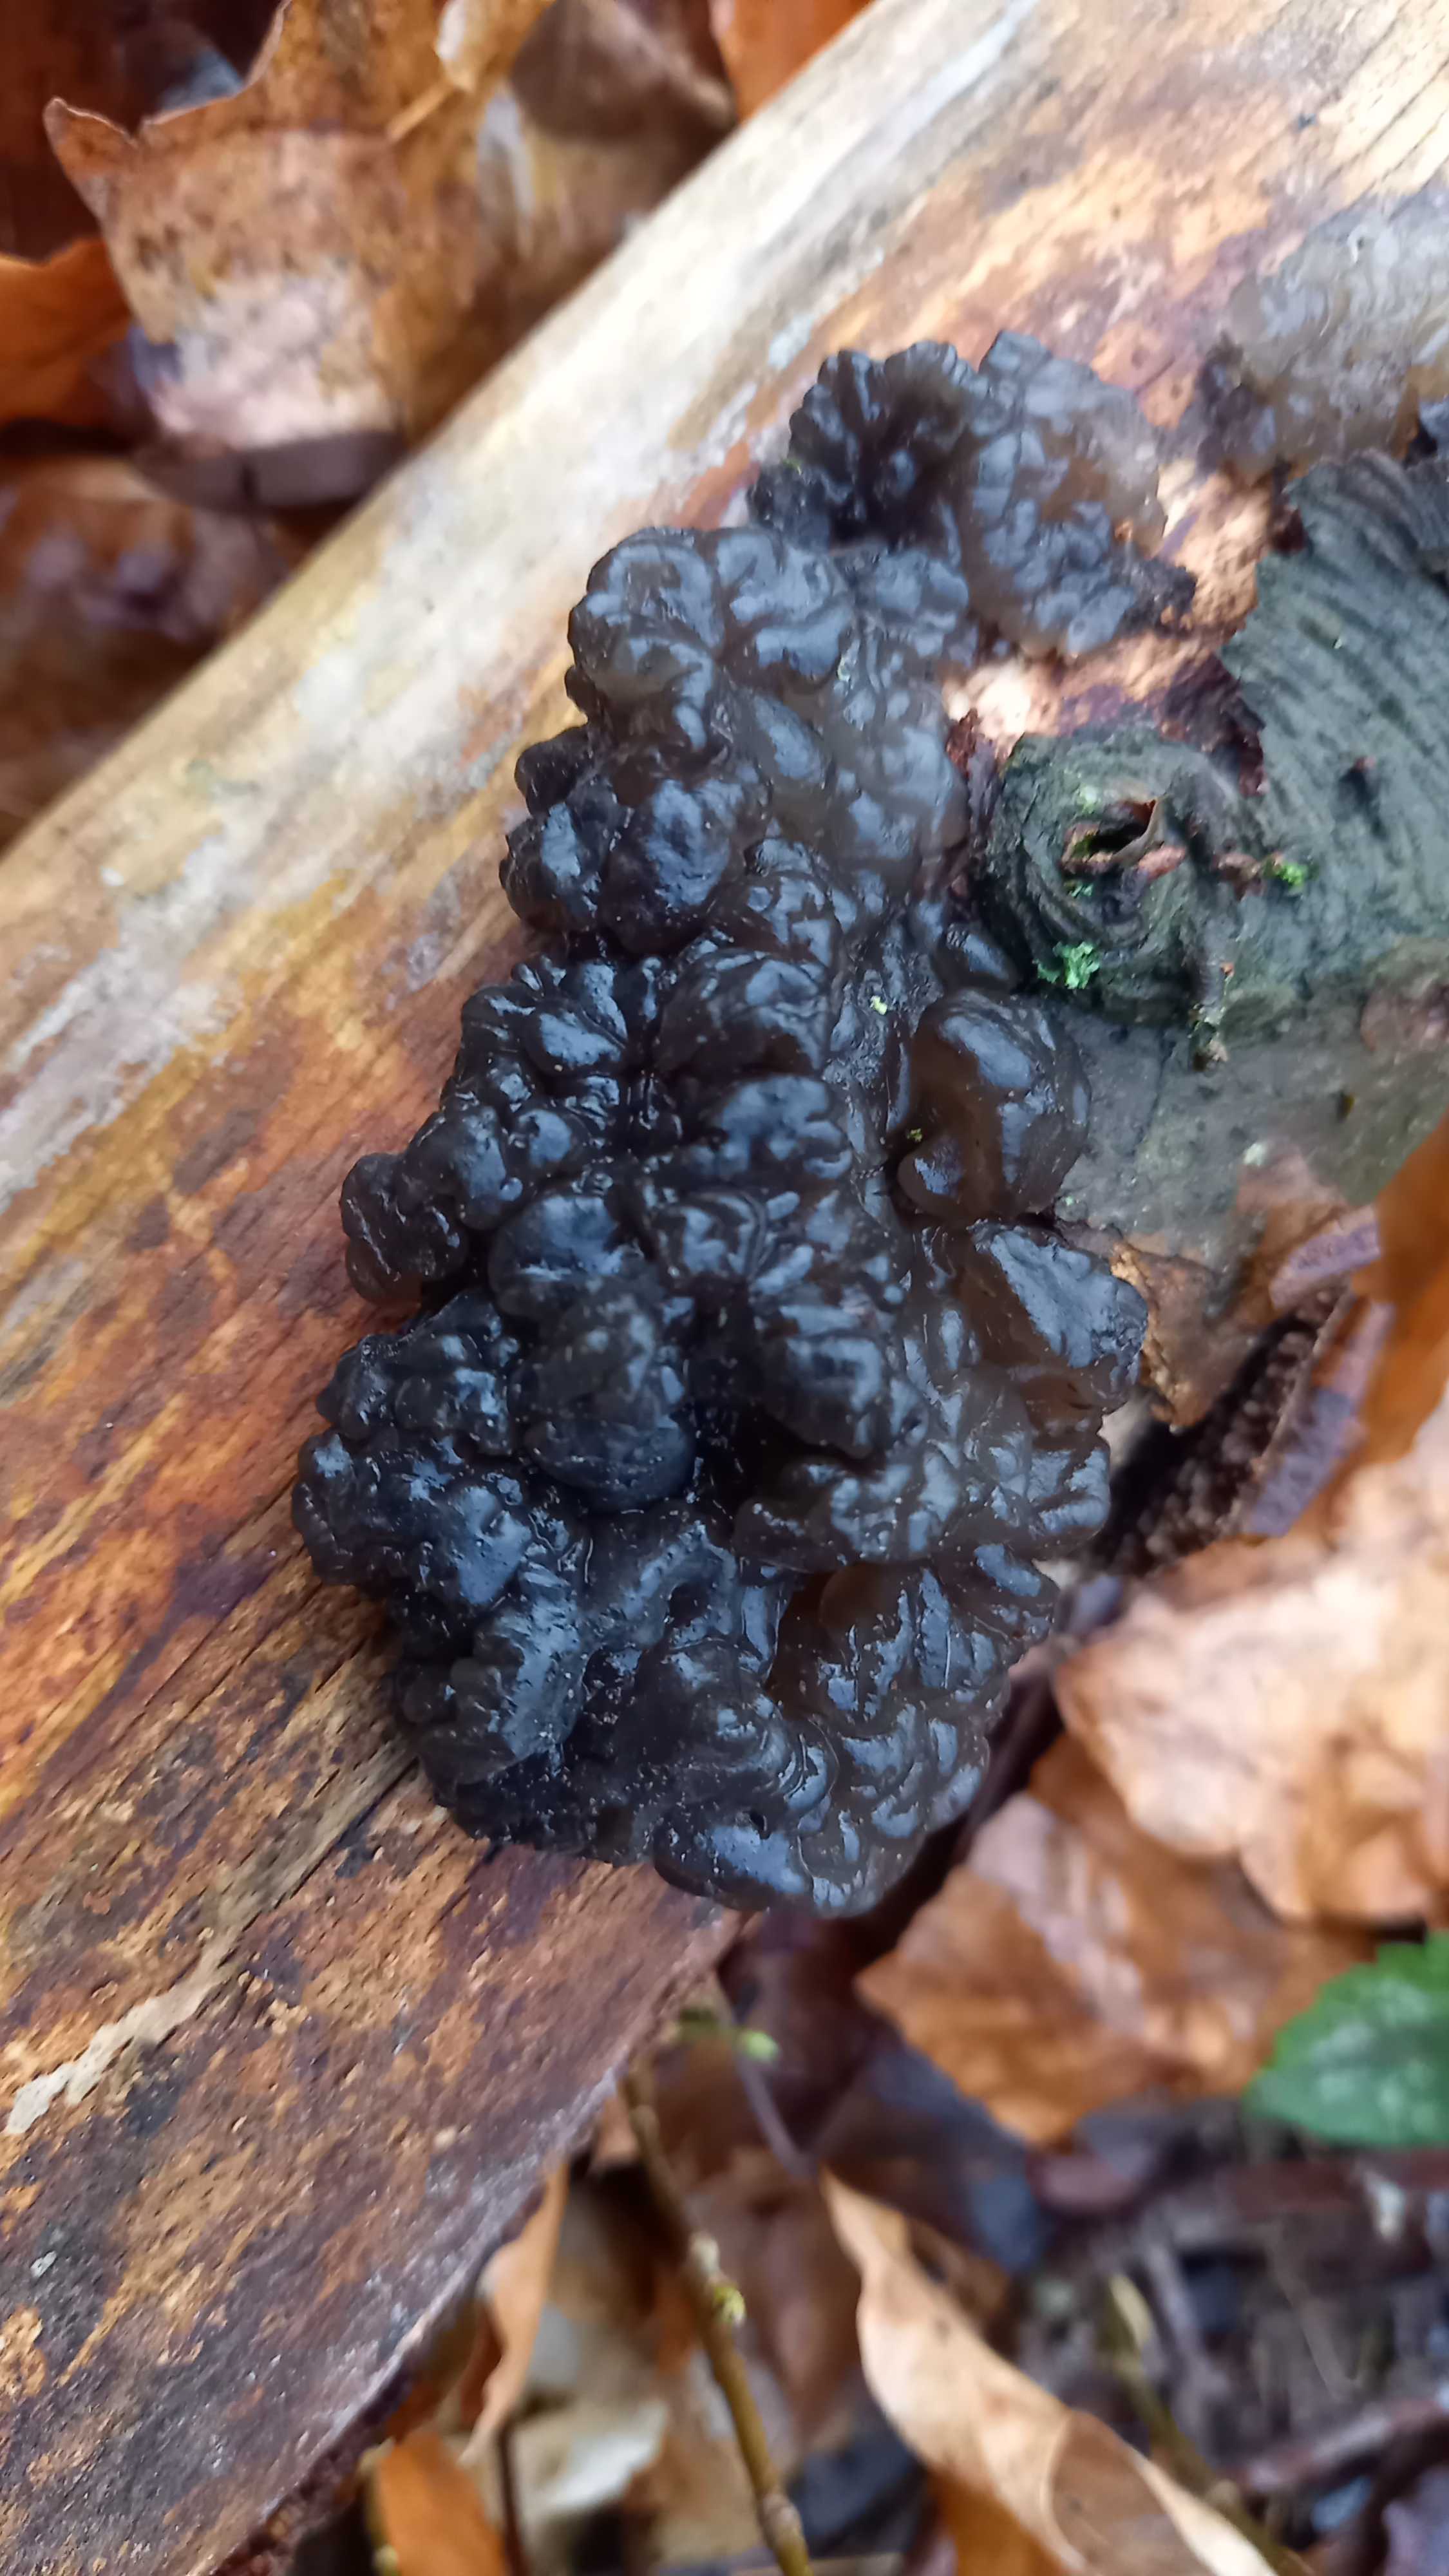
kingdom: Fungi
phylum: Basidiomycota
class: Agaricomycetes
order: Auriculariales
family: Auriculariaceae
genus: Exidia
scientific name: Exidia nigricans
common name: almindelig bævretop
